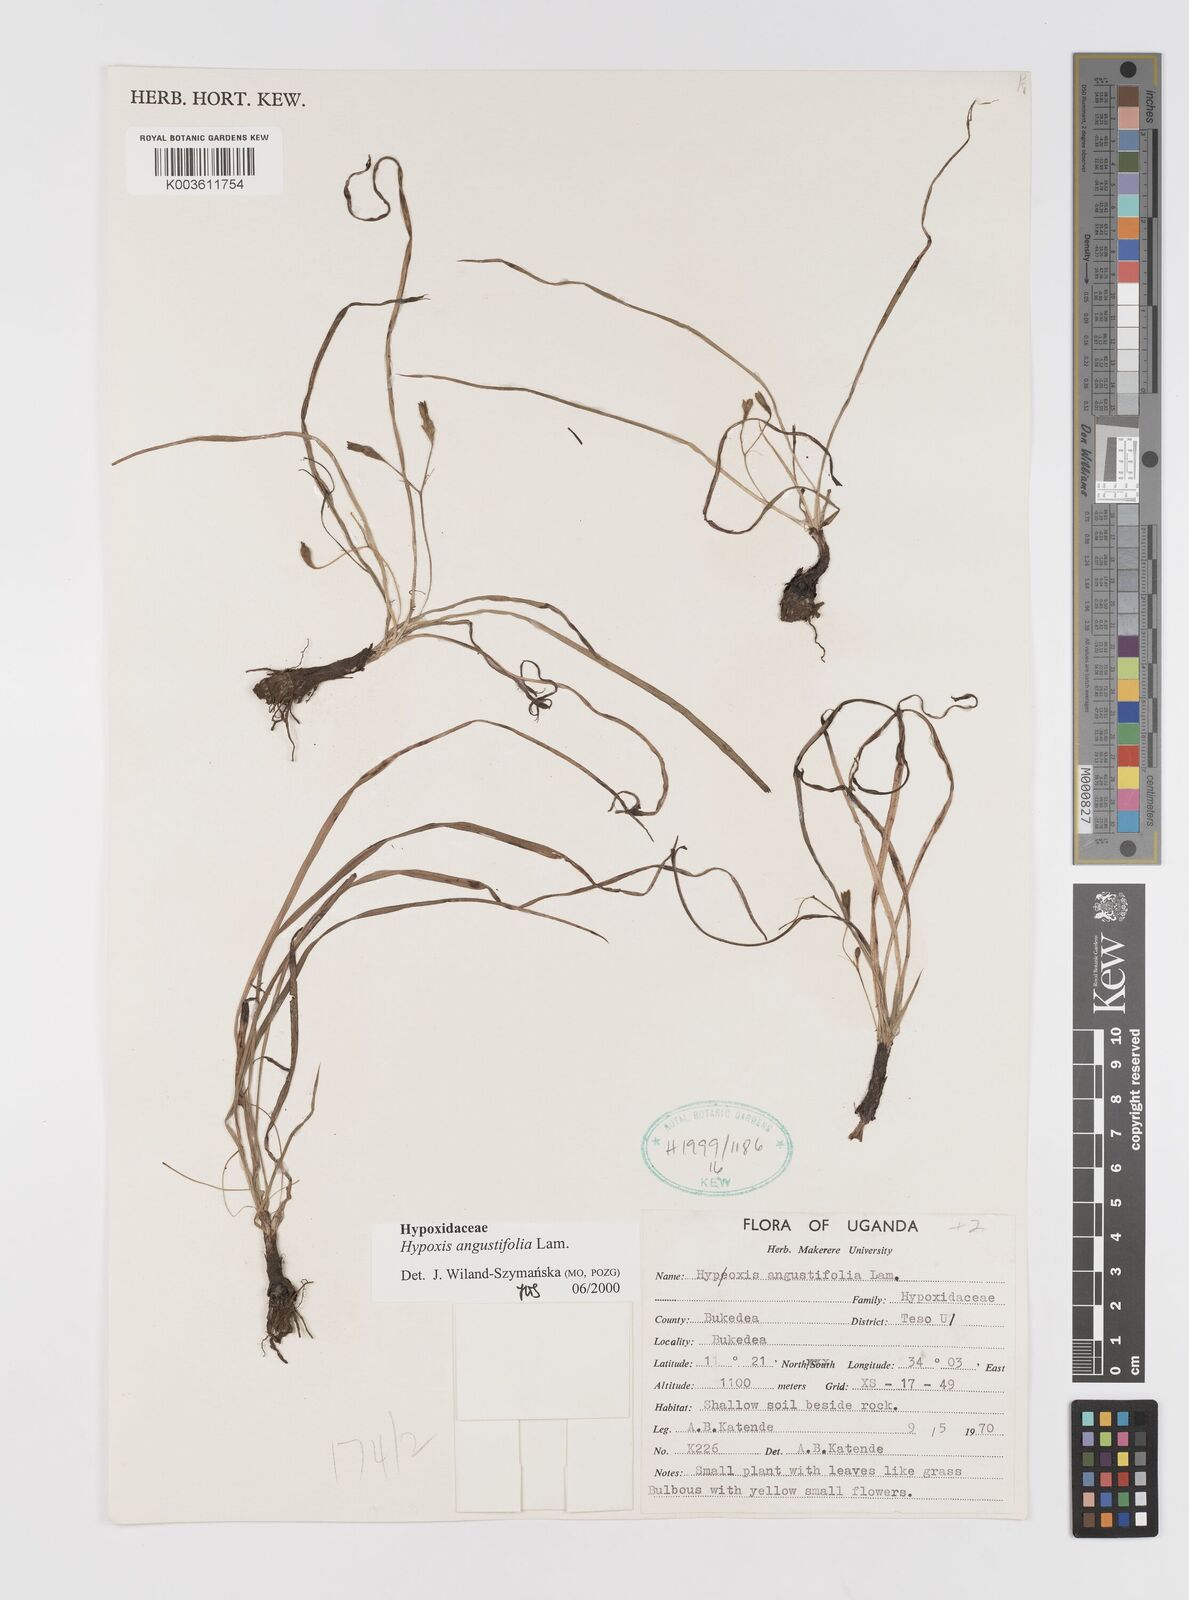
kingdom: Plantae
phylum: Tracheophyta
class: Liliopsida
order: Asparagales
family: Hypoxidaceae
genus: Hypoxis
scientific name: Hypoxis angustifolia
